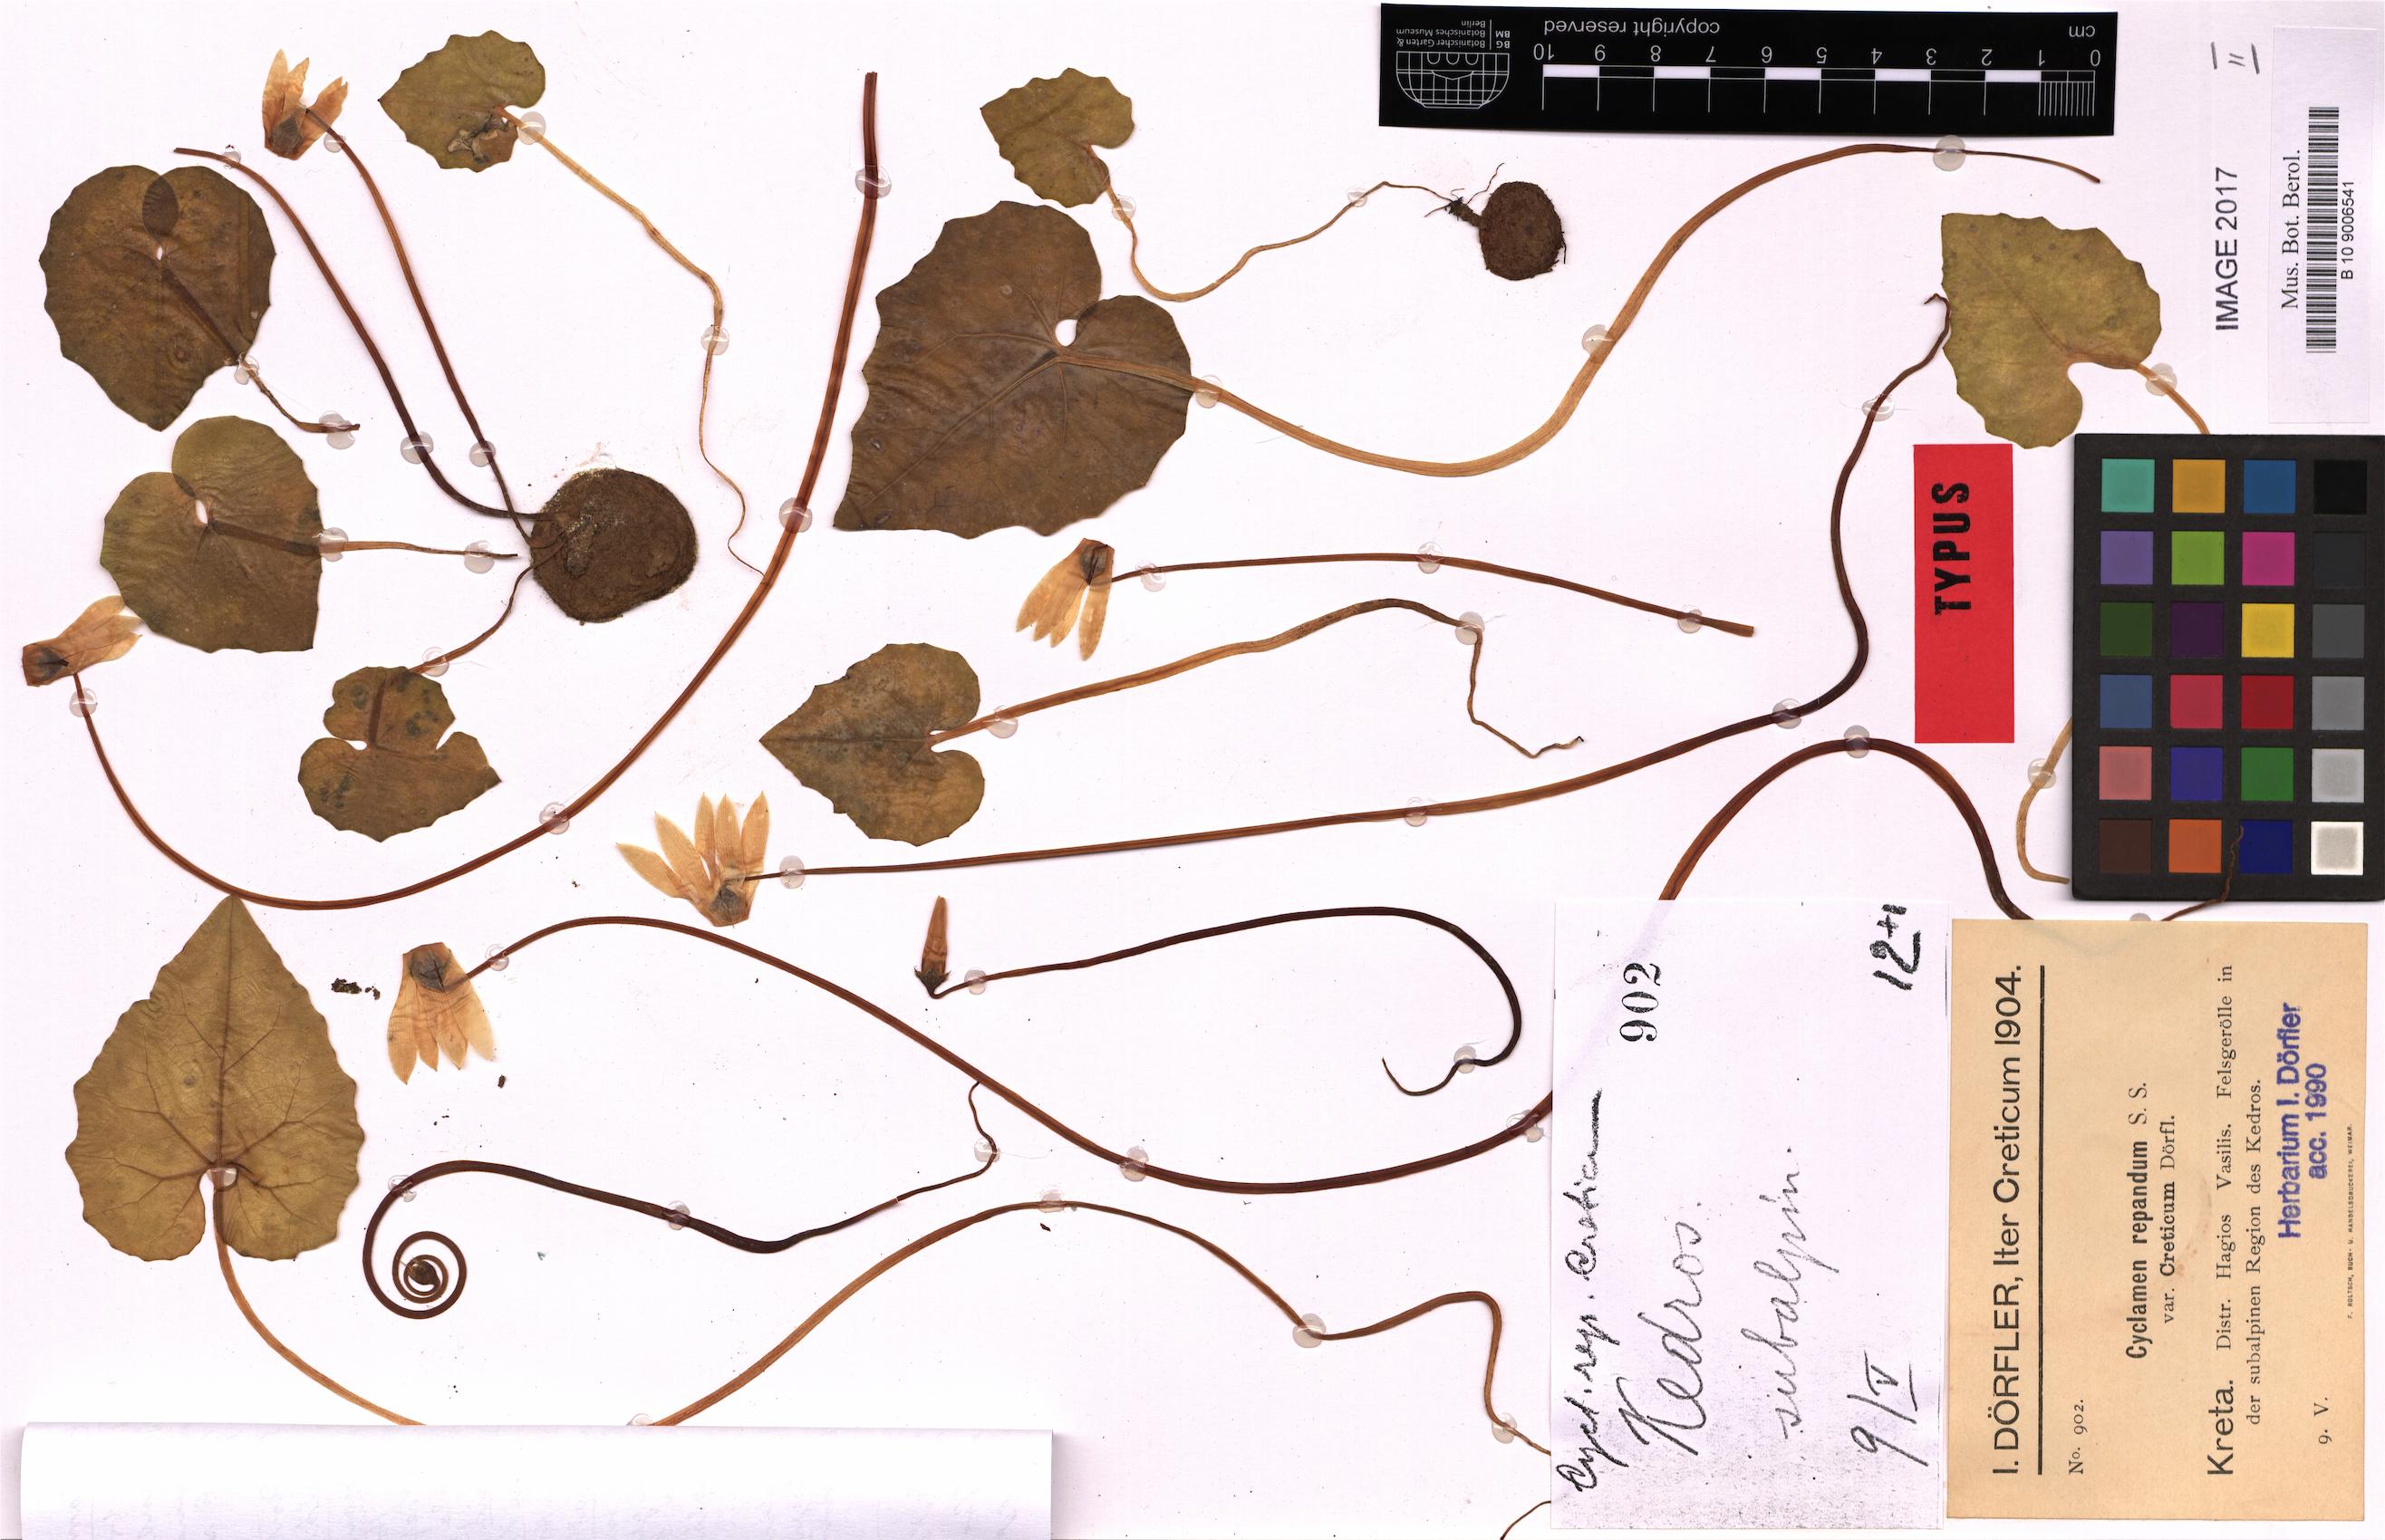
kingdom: Plantae
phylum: Tracheophyta
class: Magnoliopsida
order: Ericales
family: Primulaceae
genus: Cyclamen
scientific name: Cyclamen creticum
